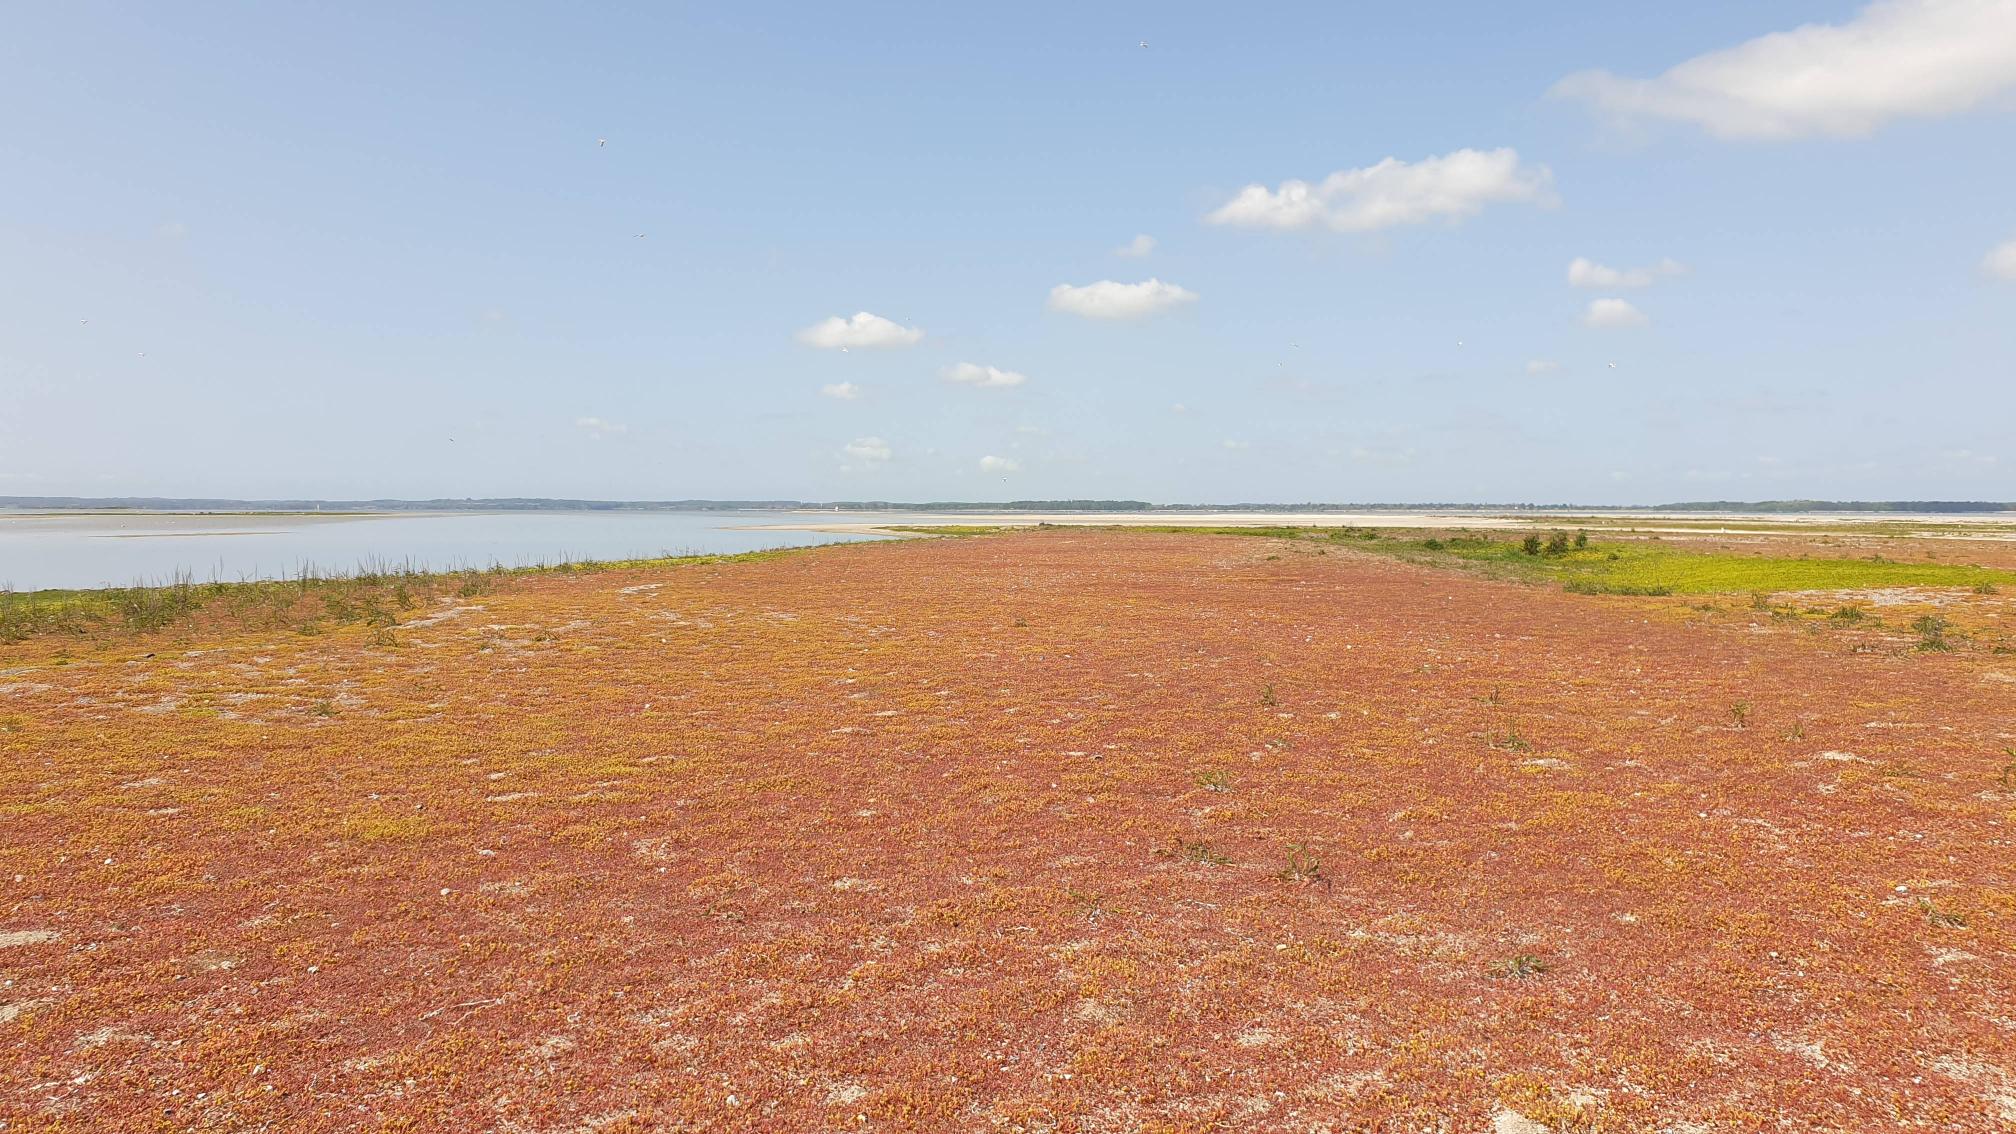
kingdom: Plantae
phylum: Tracheophyta
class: Magnoliopsida
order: Saxifragales
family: Crassulaceae
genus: Sedum
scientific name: Sedum acre
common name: Bidende stenurt
